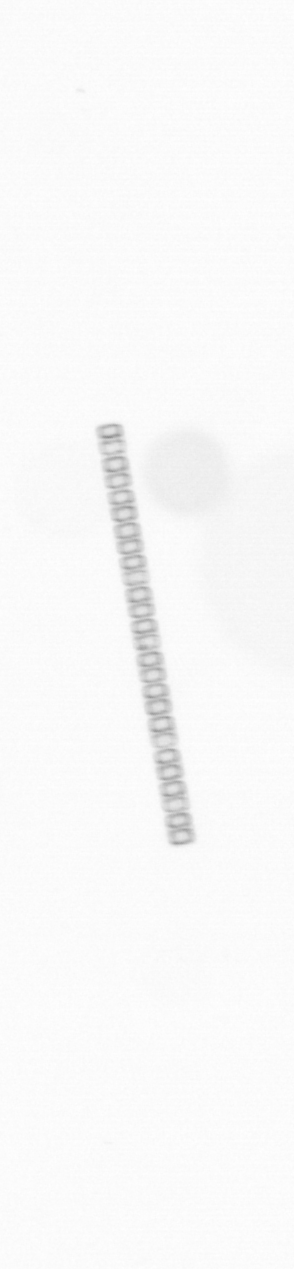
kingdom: Chromista
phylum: Ochrophyta
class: Bacillariophyceae
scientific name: Bacillariophyceae
